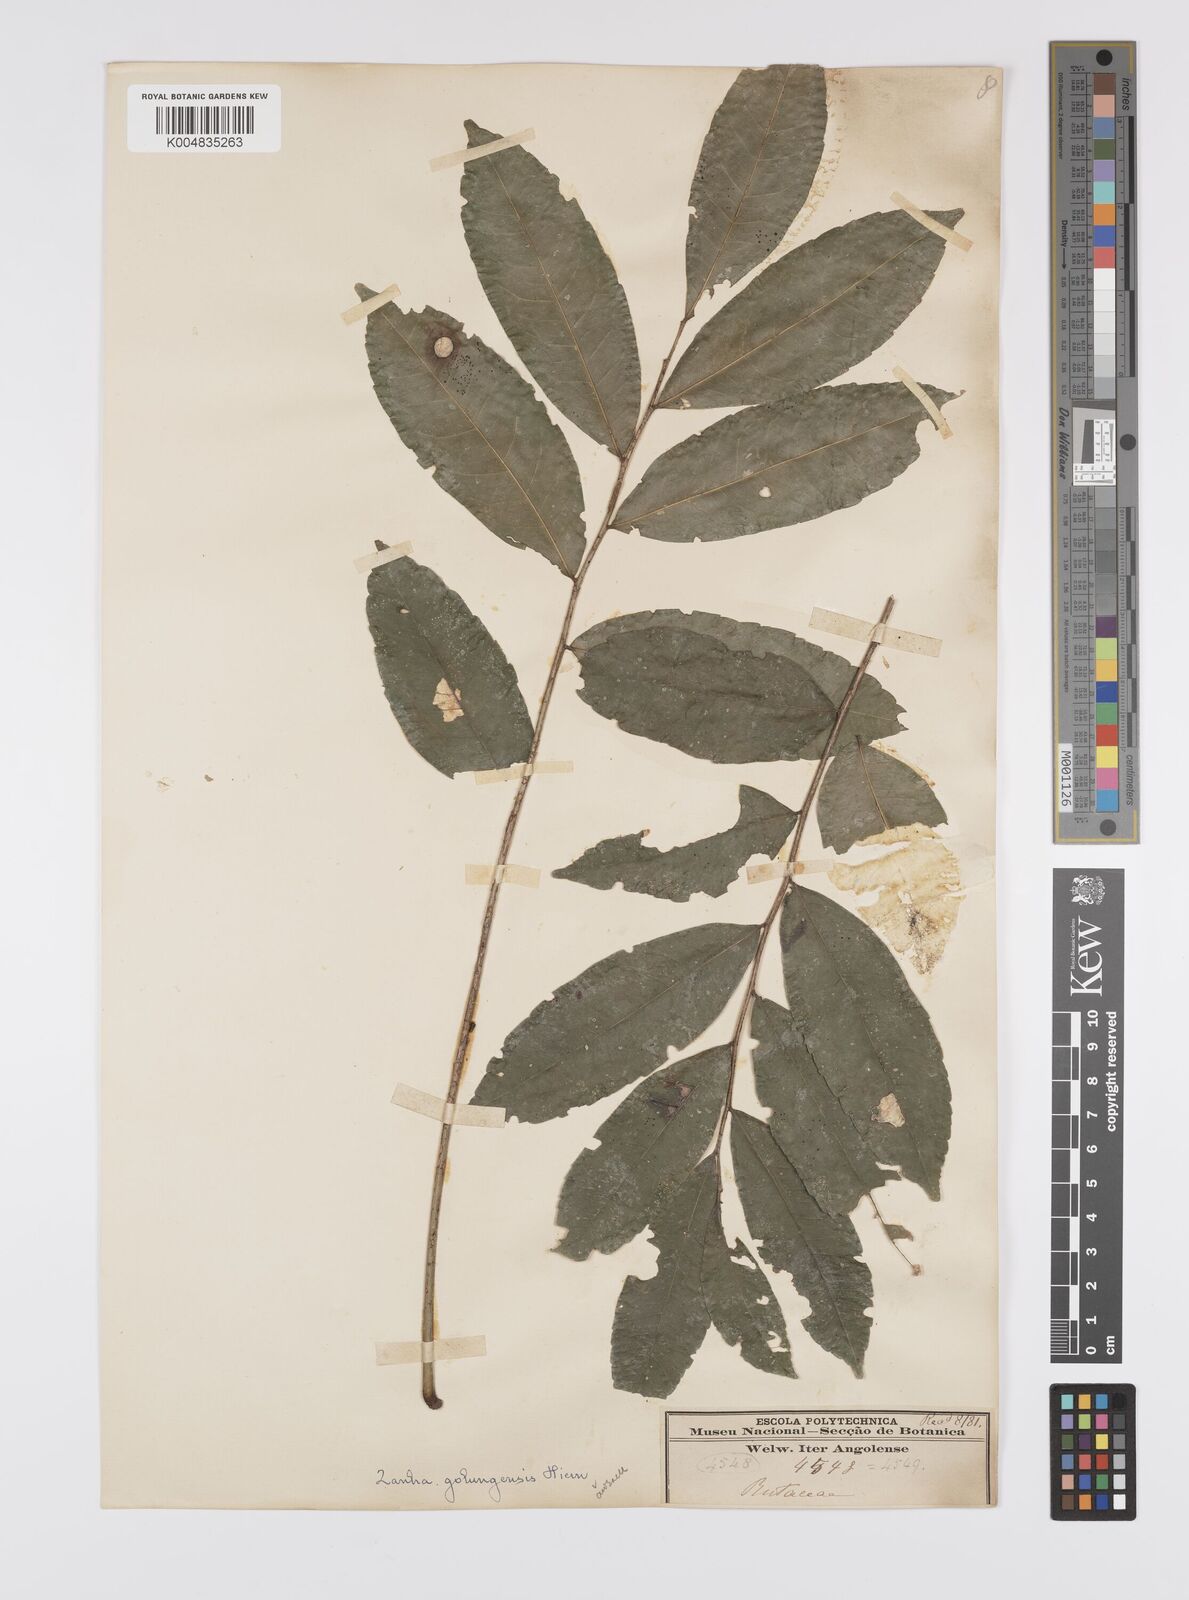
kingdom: Plantae
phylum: Tracheophyta
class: Magnoliopsida
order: Sapindales
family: Sapindaceae
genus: Zanha
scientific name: Zanha golungensis
